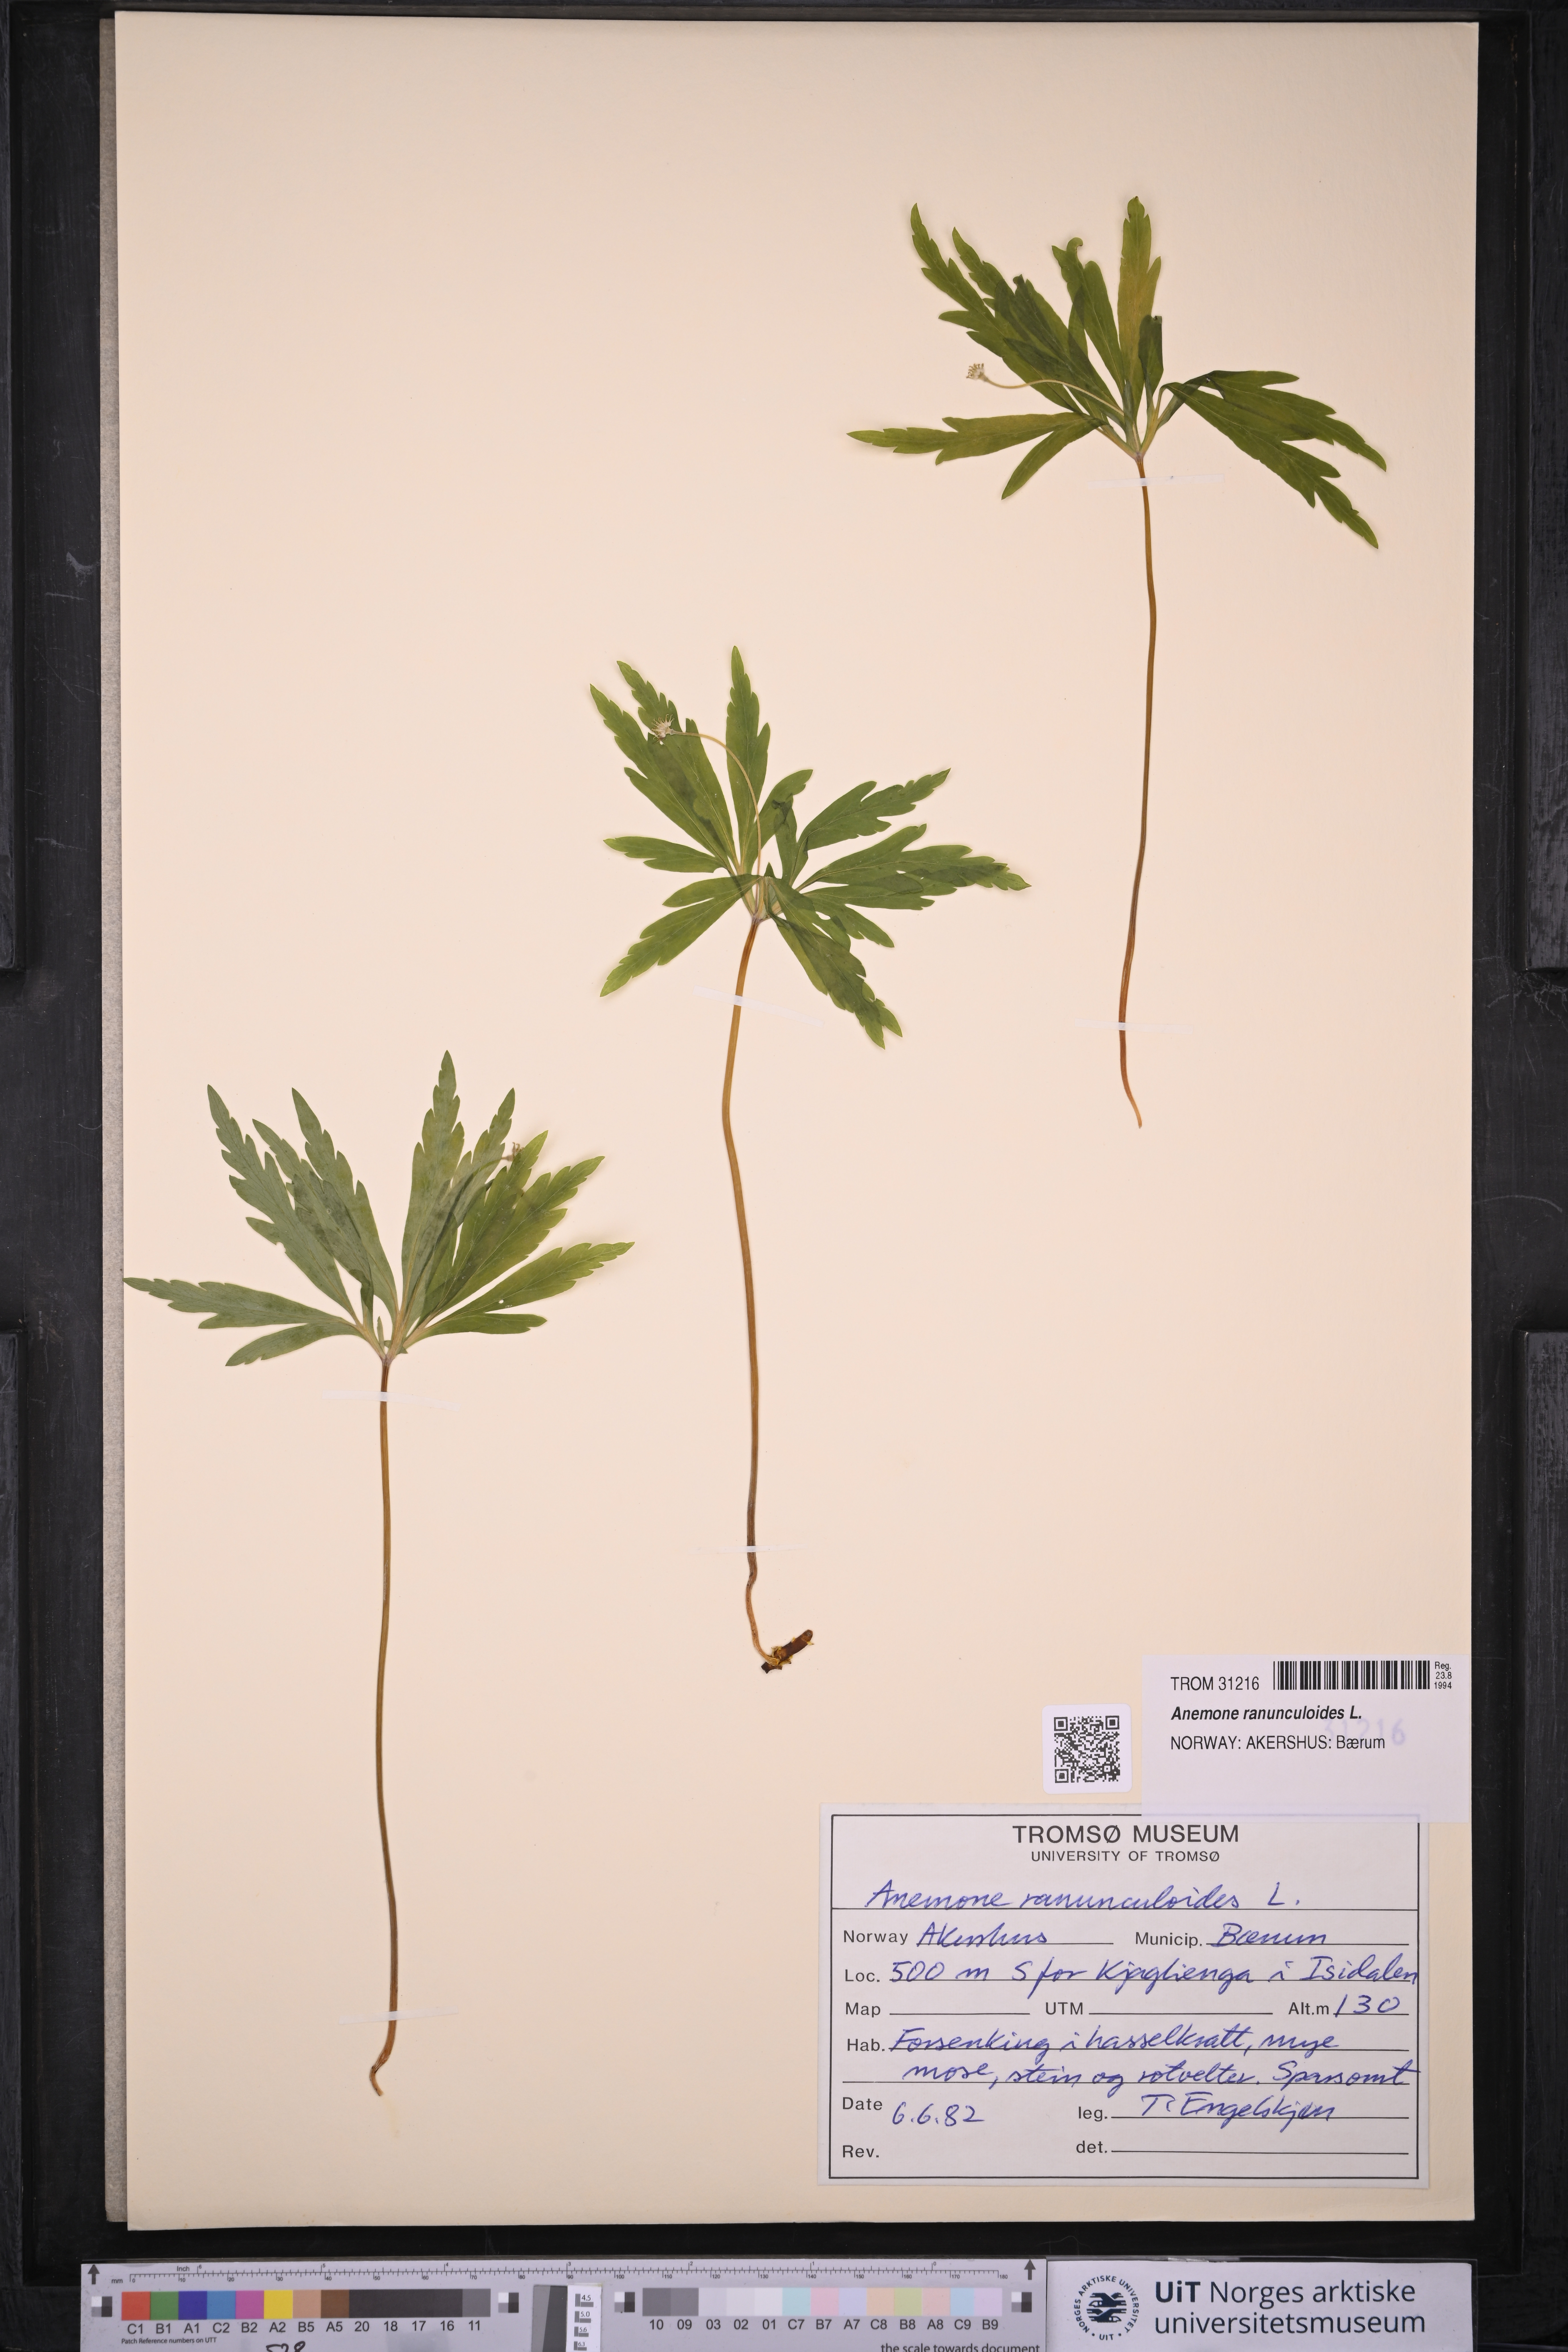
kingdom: Plantae
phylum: Tracheophyta
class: Magnoliopsida
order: Ranunculales
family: Ranunculaceae
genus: Anemone
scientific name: Anemone ranunculoides
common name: Yellow anemone
